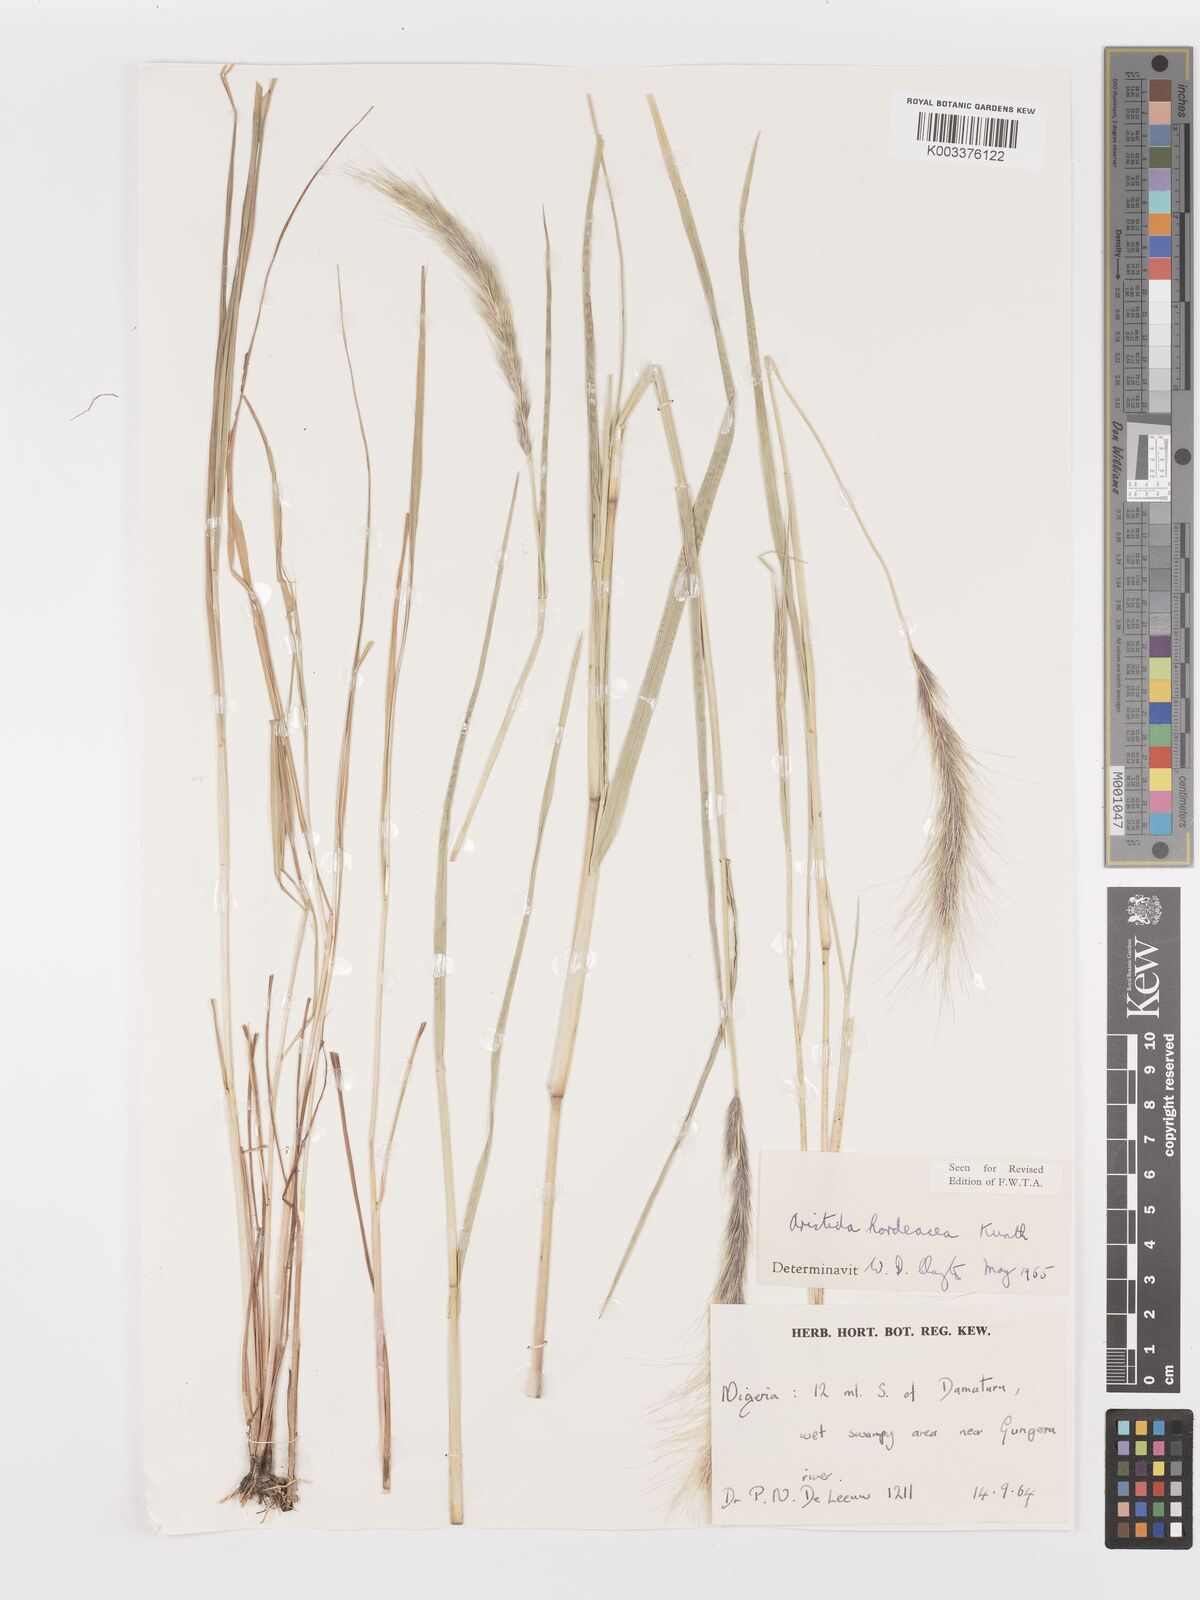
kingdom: Plantae
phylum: Tracheophyta
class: Liliopsida
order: Poales
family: Poaceae
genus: Aristida
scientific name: Aristida hordeacea
